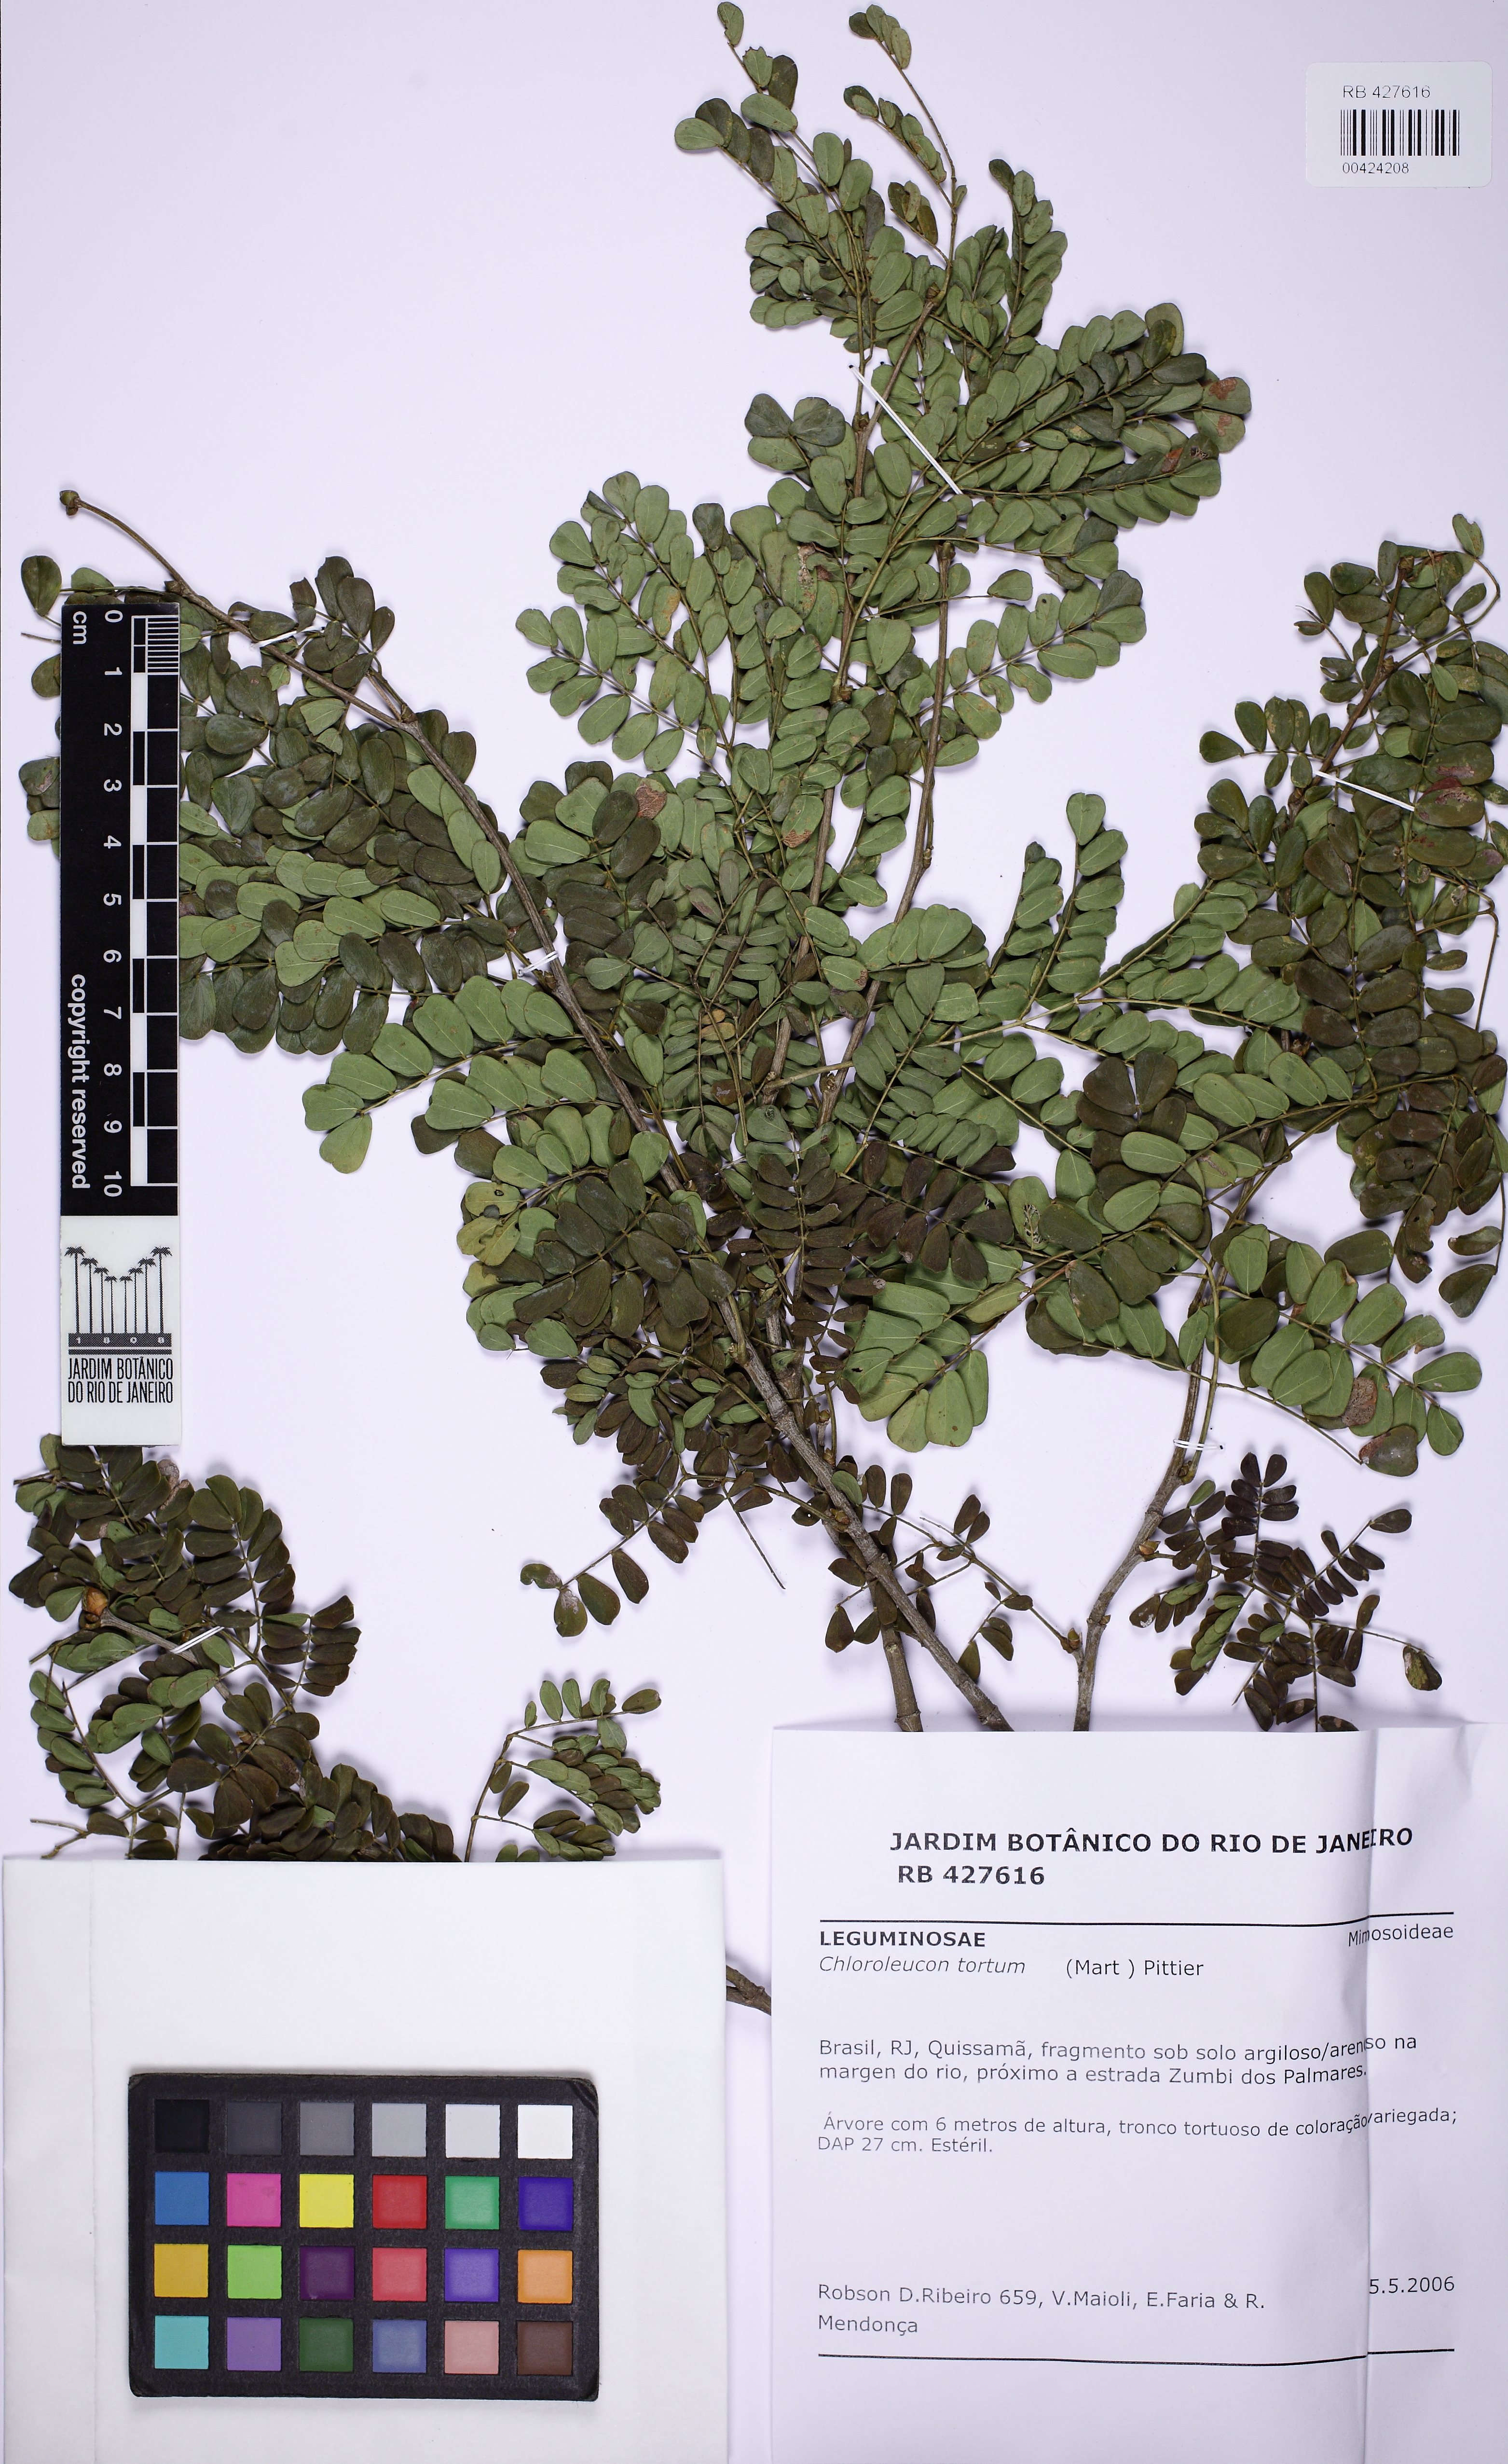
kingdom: Plantae
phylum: Tracheophyta
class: Magnoliopsida
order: Fabales
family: Fabaceae
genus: Chloroleucon
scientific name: Chloroleucon tortum
